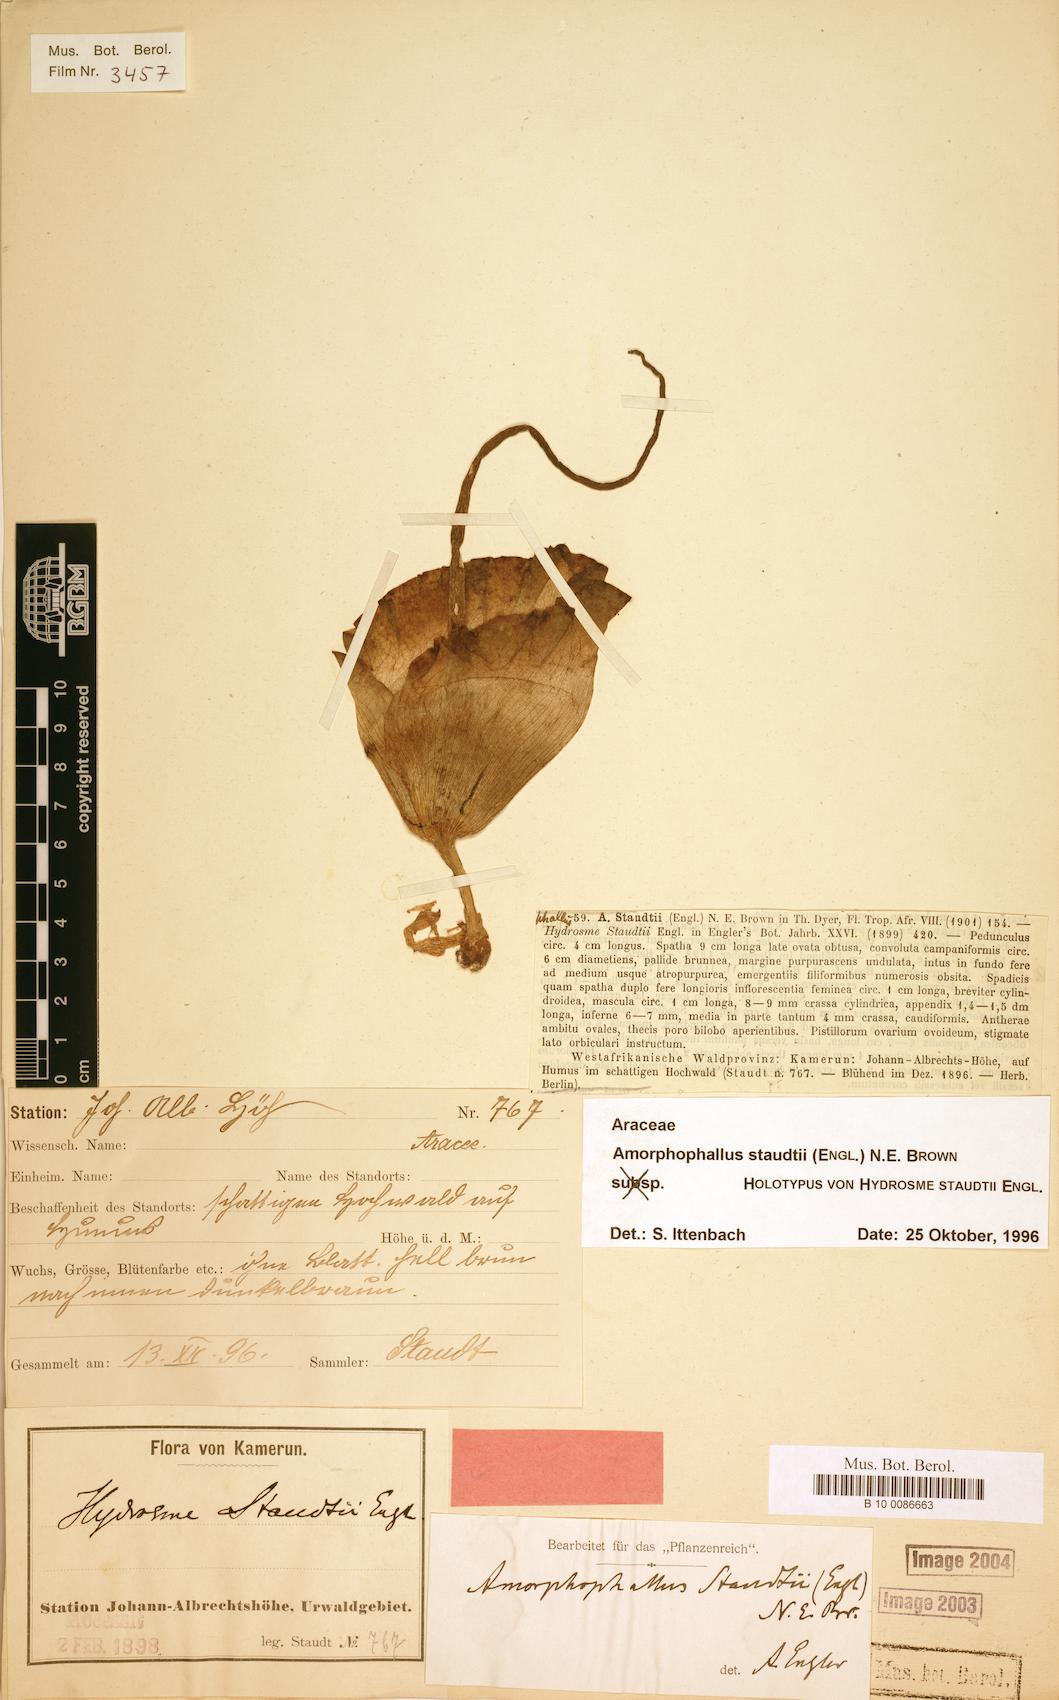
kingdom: Plantae
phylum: Tracheophyta
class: Liliopsida
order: Alismatales
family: Araceae
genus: Amorphophallus
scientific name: Amorphophallus staudtii
